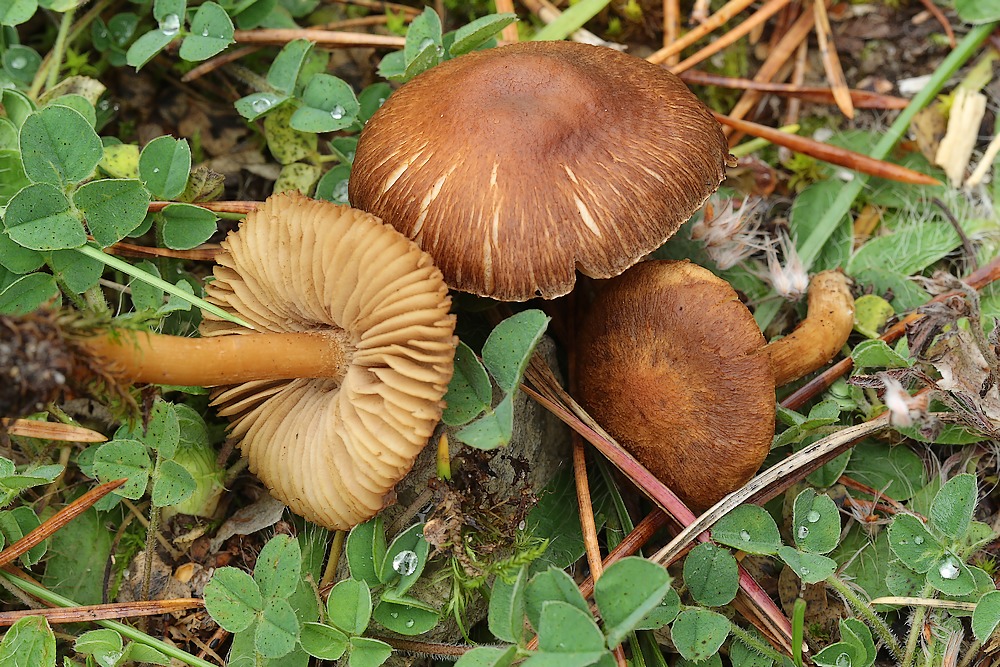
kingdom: Fungi
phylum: Basidiomycota
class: Agaricomycetes
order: Agaricales
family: Inocybaceae
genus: Inocybe
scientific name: Inocybe
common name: trævlhat
